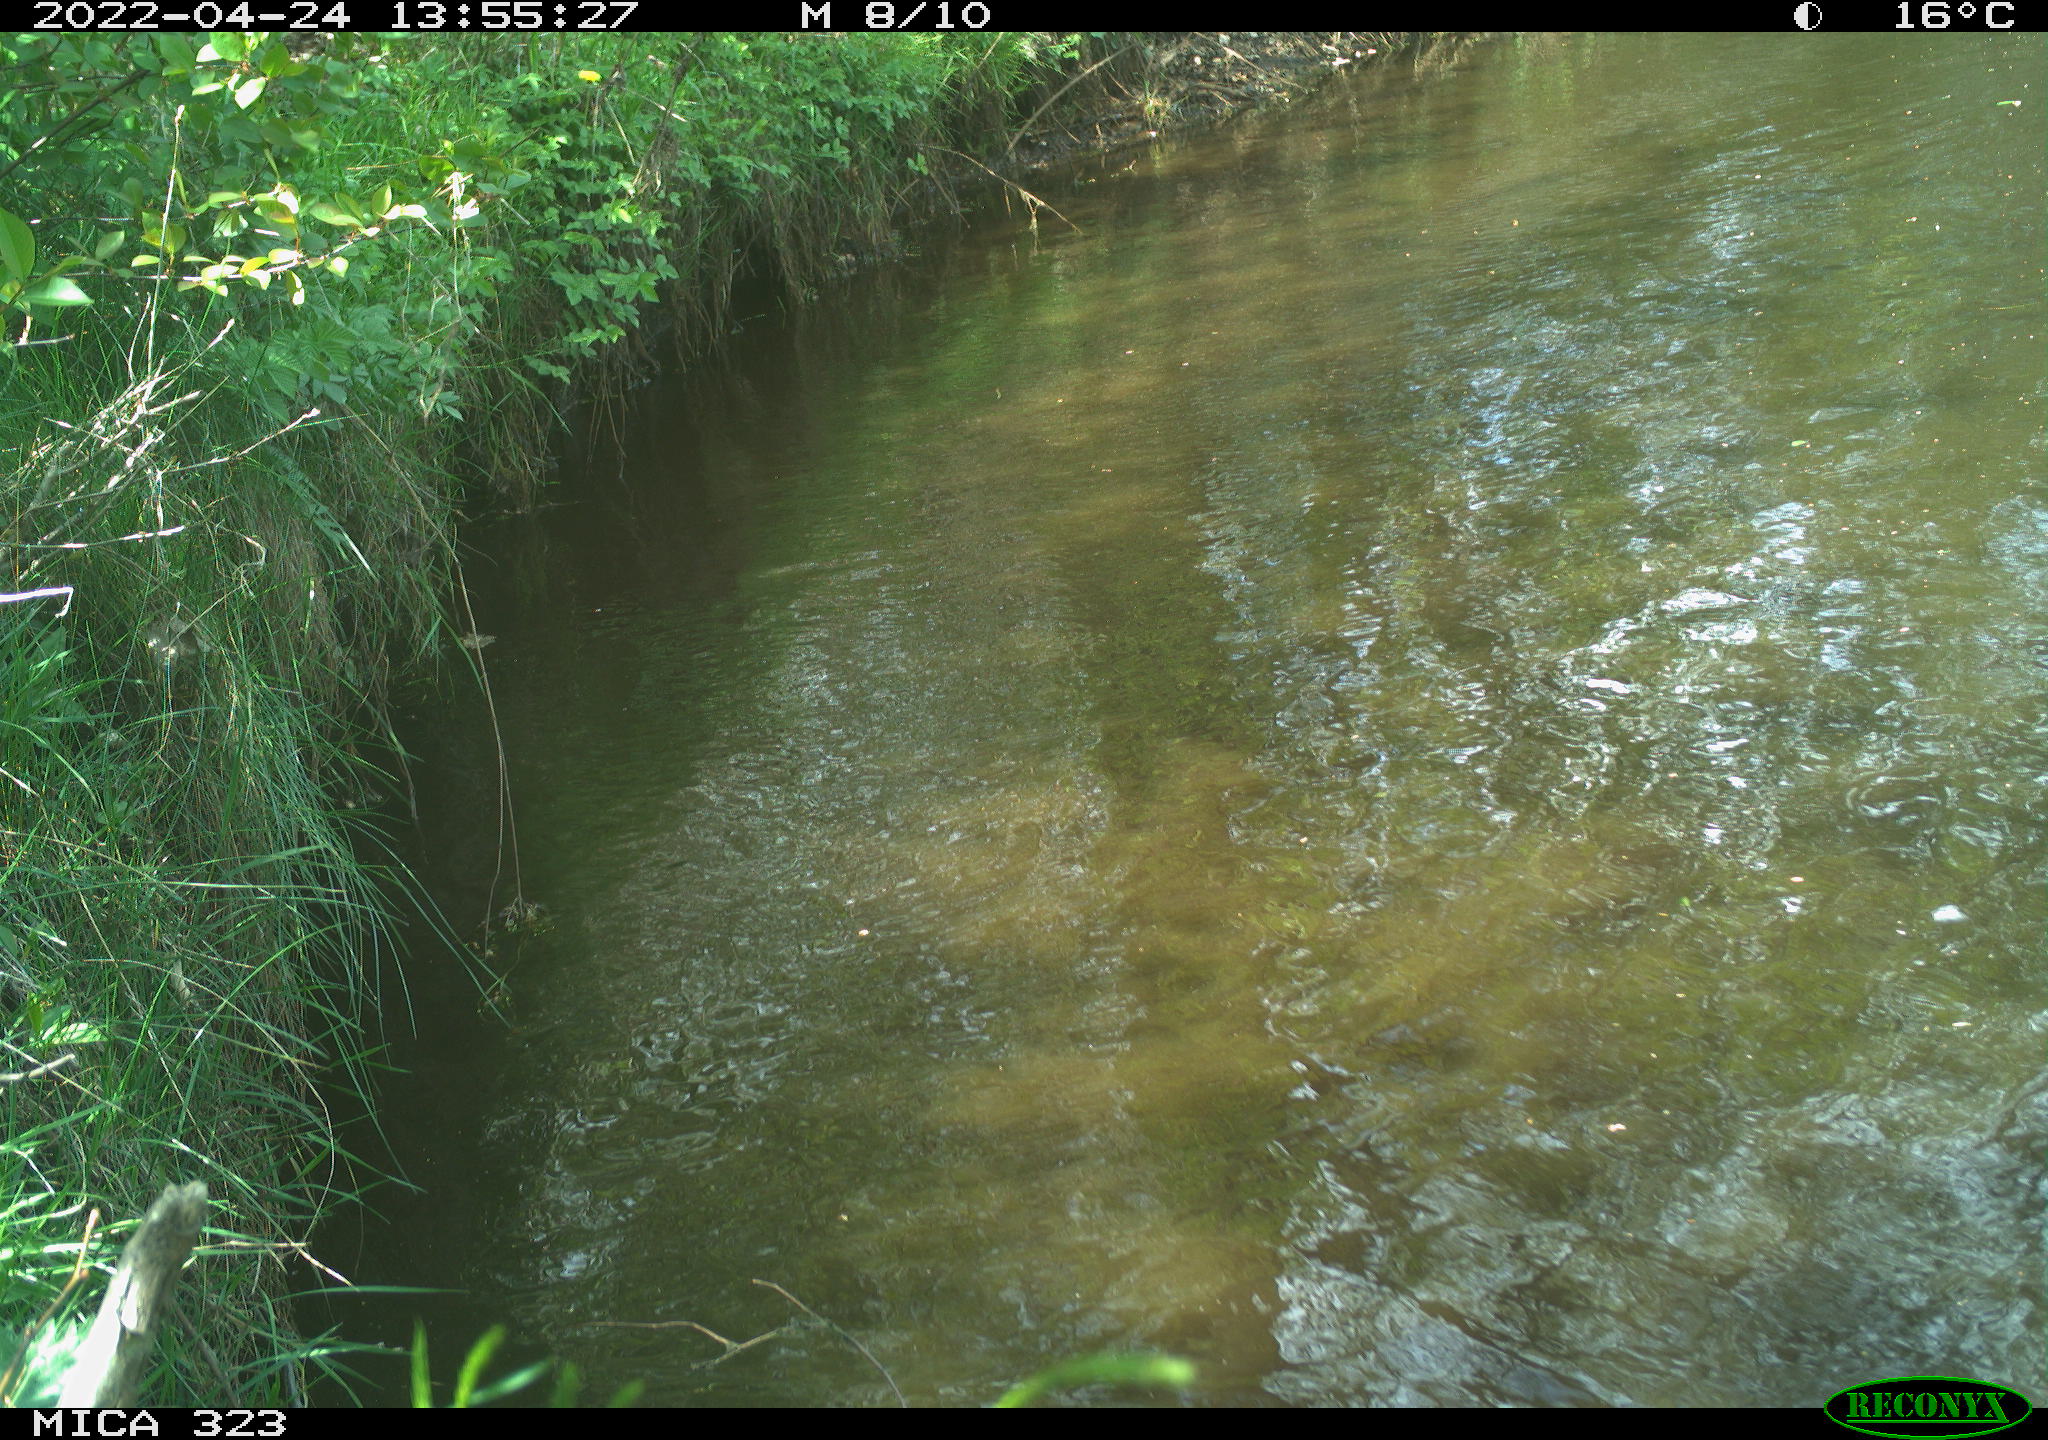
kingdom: Animalia
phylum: Chordata
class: Aves
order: Anseriformes
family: Anatidae
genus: Anas
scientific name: Anas
